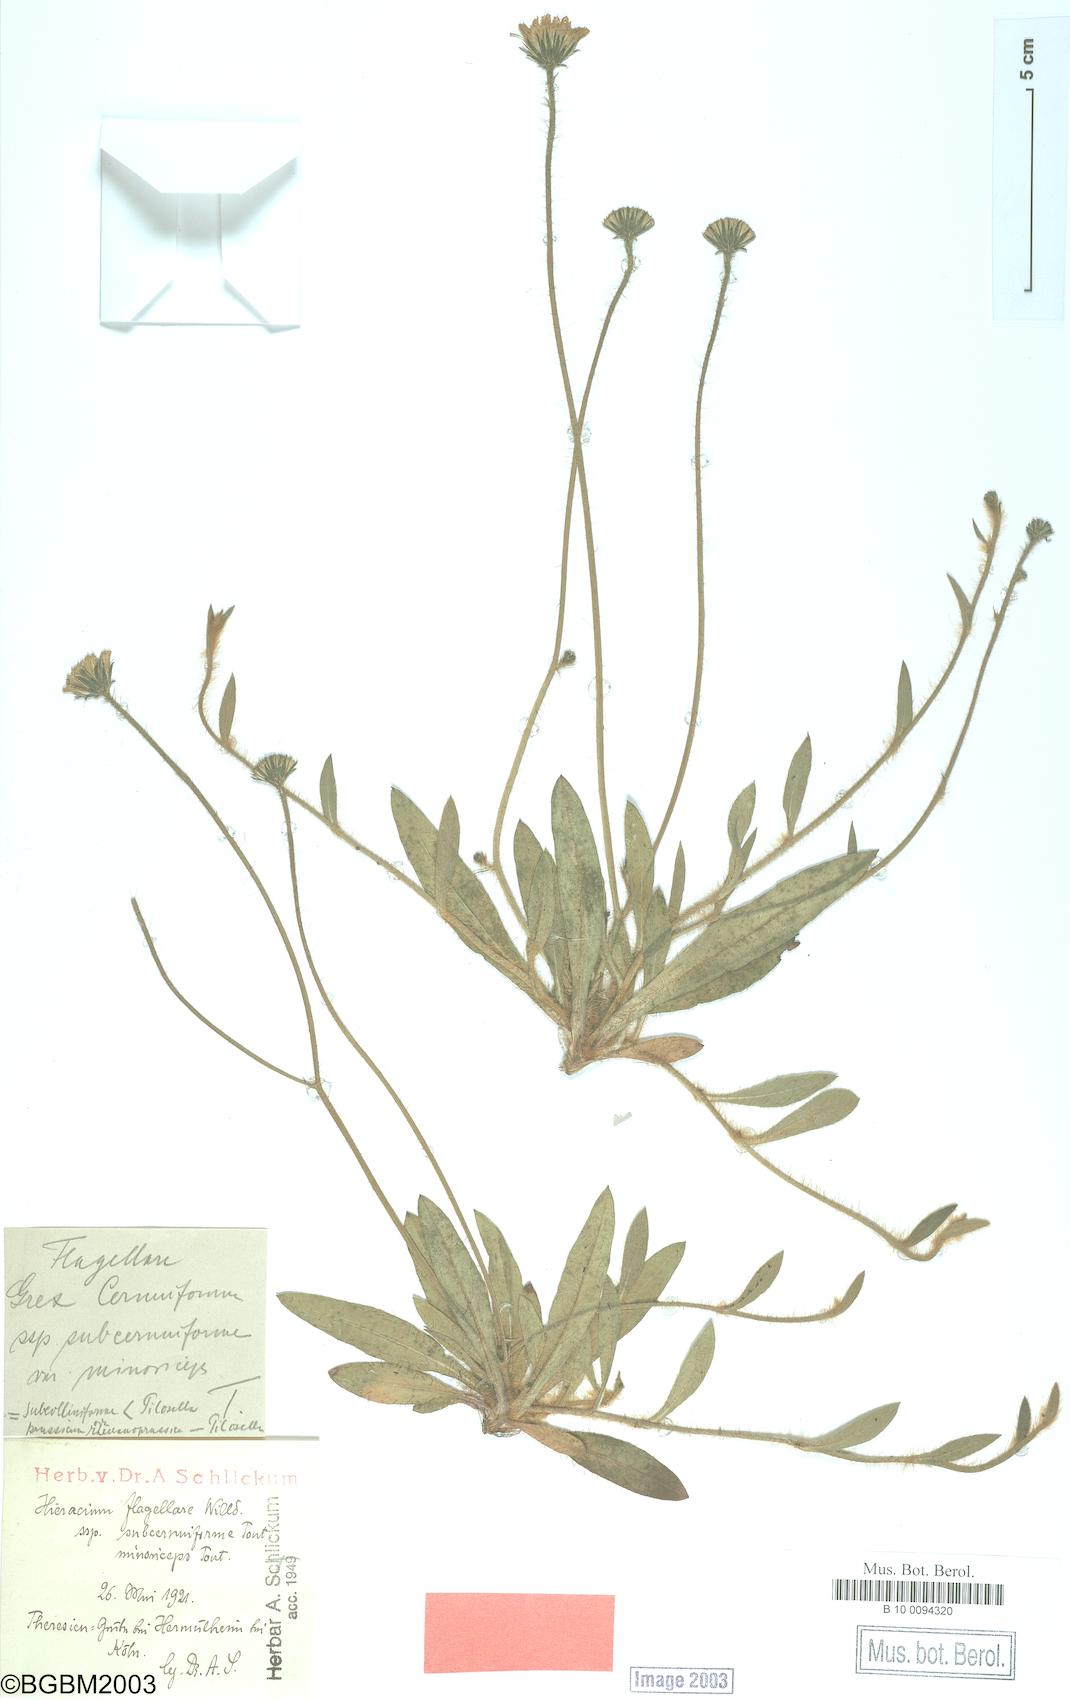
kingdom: Plantae
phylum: Tracheophyta
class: Magnoliopsida
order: Asterales
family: Asteraceae
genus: Hieracium
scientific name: Hieracium flagellare
